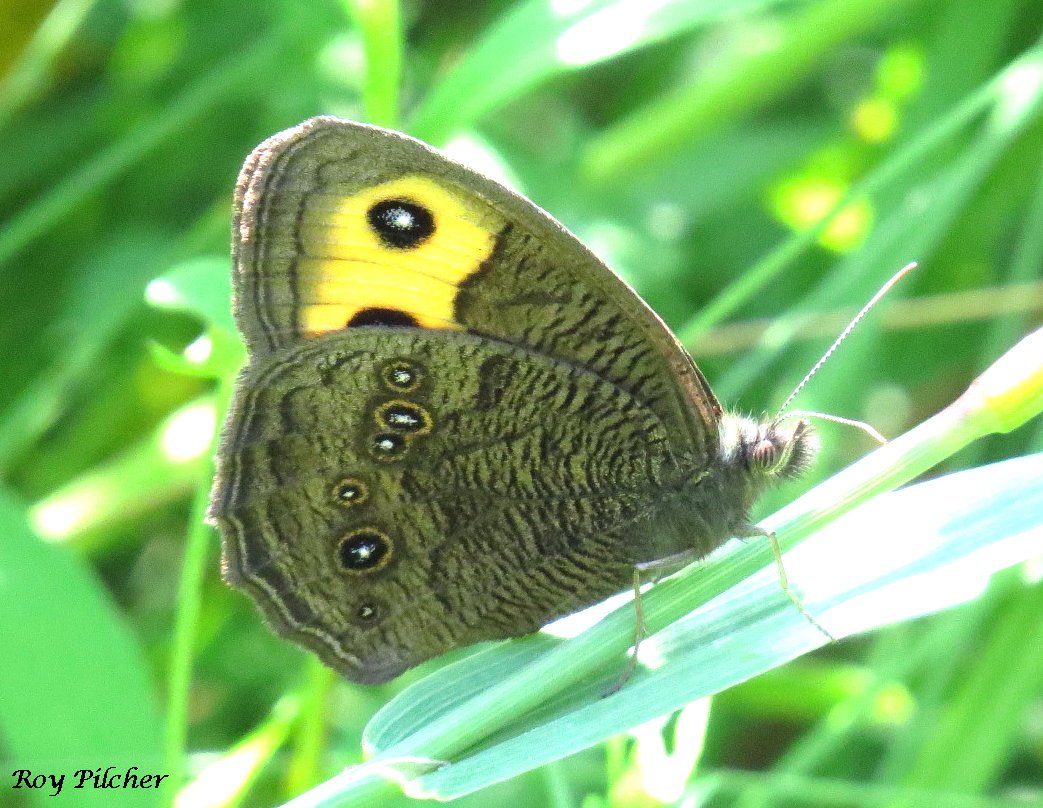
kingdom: Animalia
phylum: Arthropoda
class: Insecta
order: Lepidoptera
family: Nymphalidae
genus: Cercyonis
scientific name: Cercyonis pegala
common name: Common Wood-Nymph
